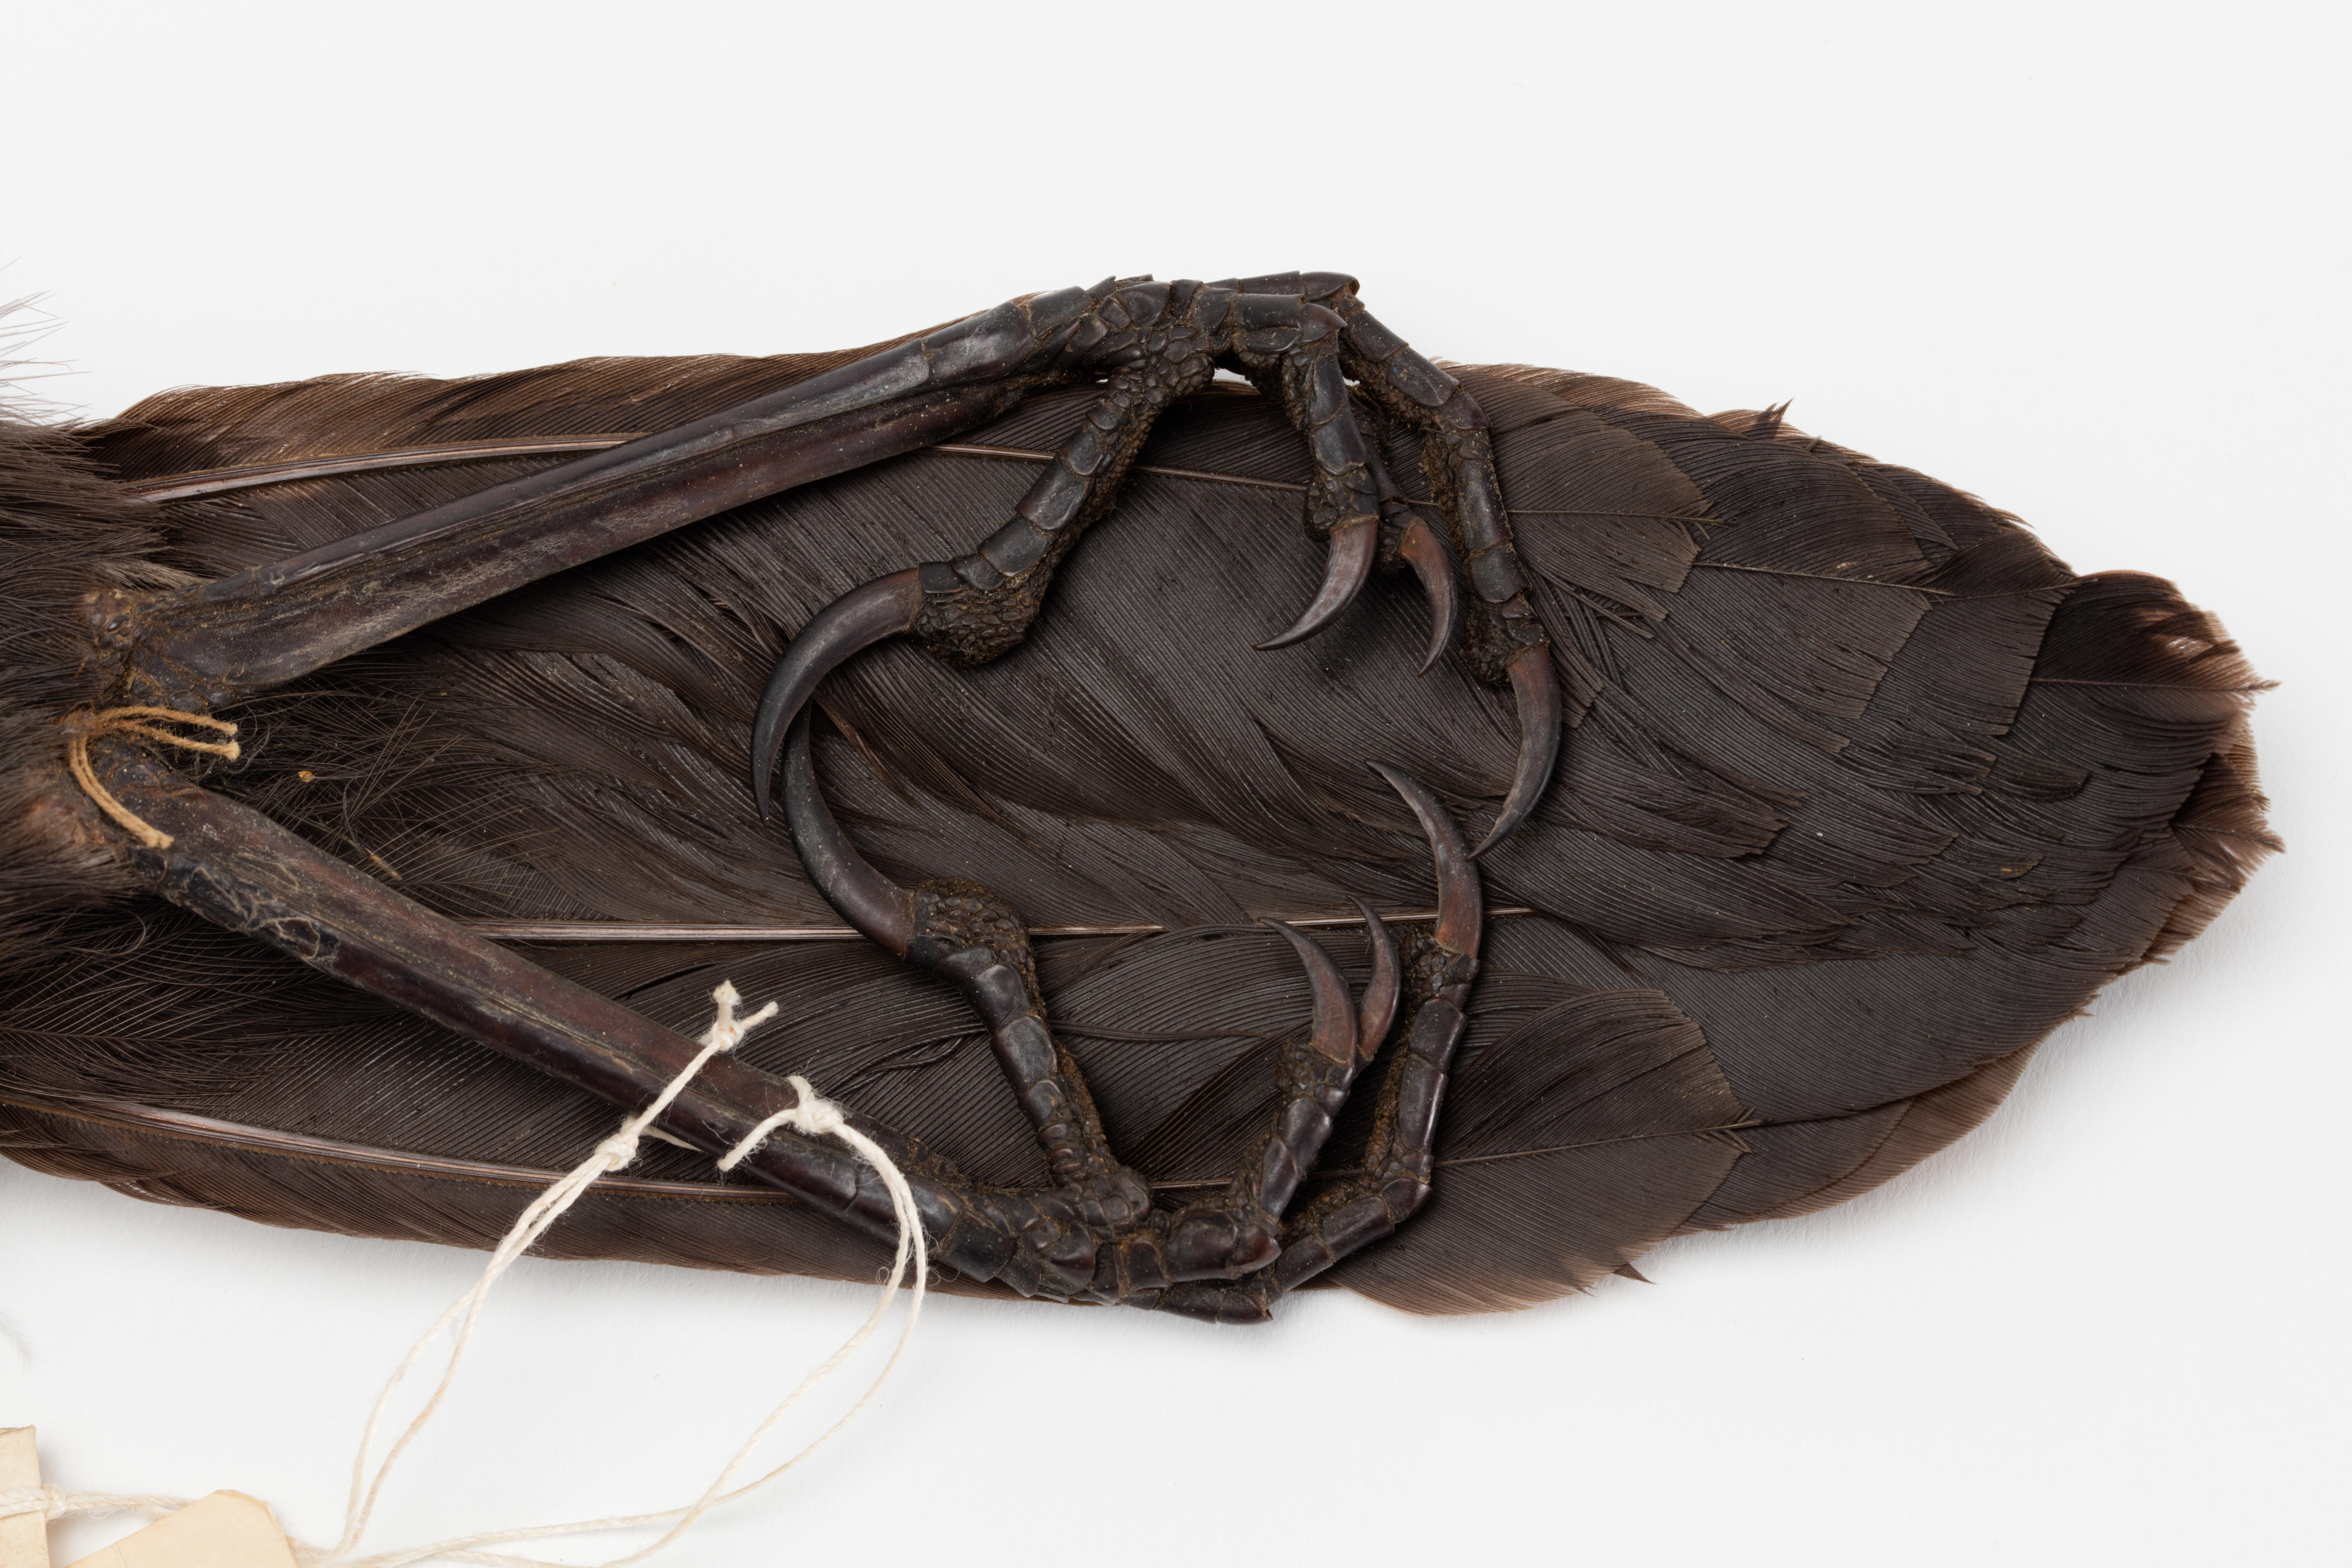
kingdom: Animalia
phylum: Chordata
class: Aves
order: Passeriformes
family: Callaeatidae
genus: Callaeas
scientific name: Callaeas cinereus
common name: South island kokako
